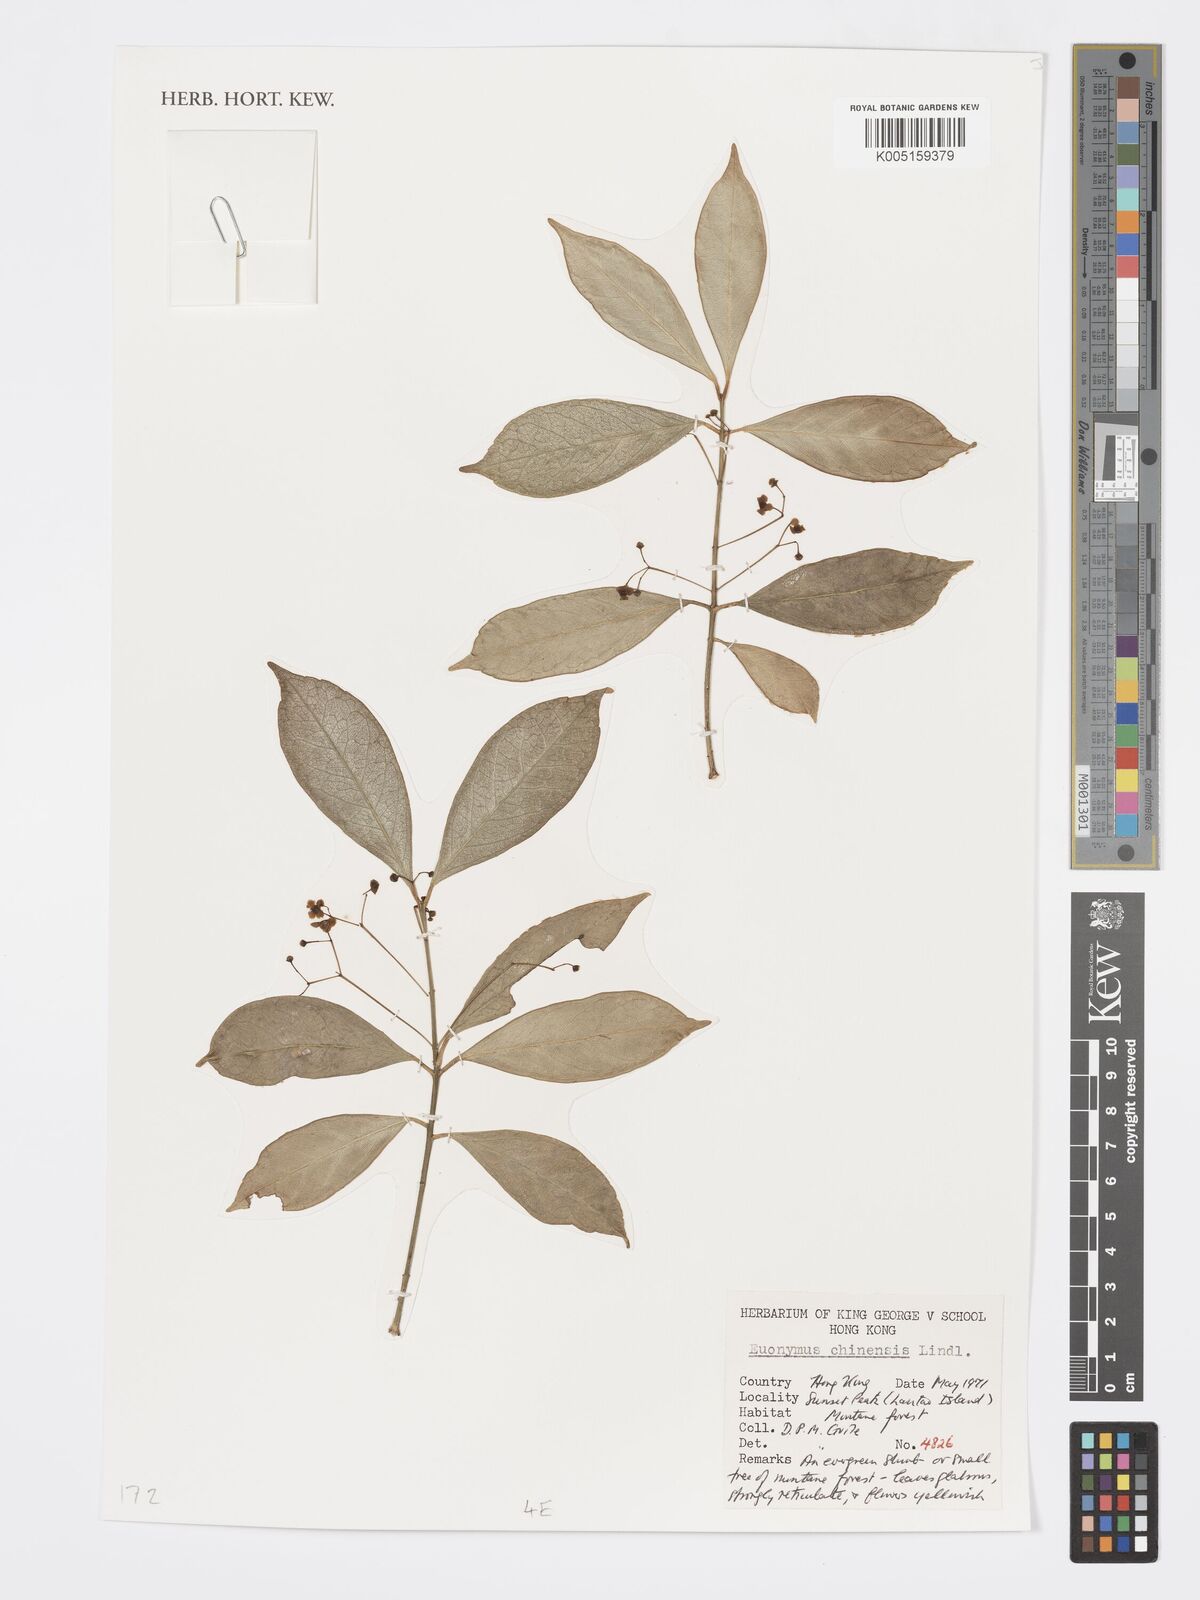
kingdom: Plantae
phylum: Tracheophyta
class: Magnoliopsida
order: Celastrales
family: Celastraceae
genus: Euonymus
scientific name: Euonymus nitidus
